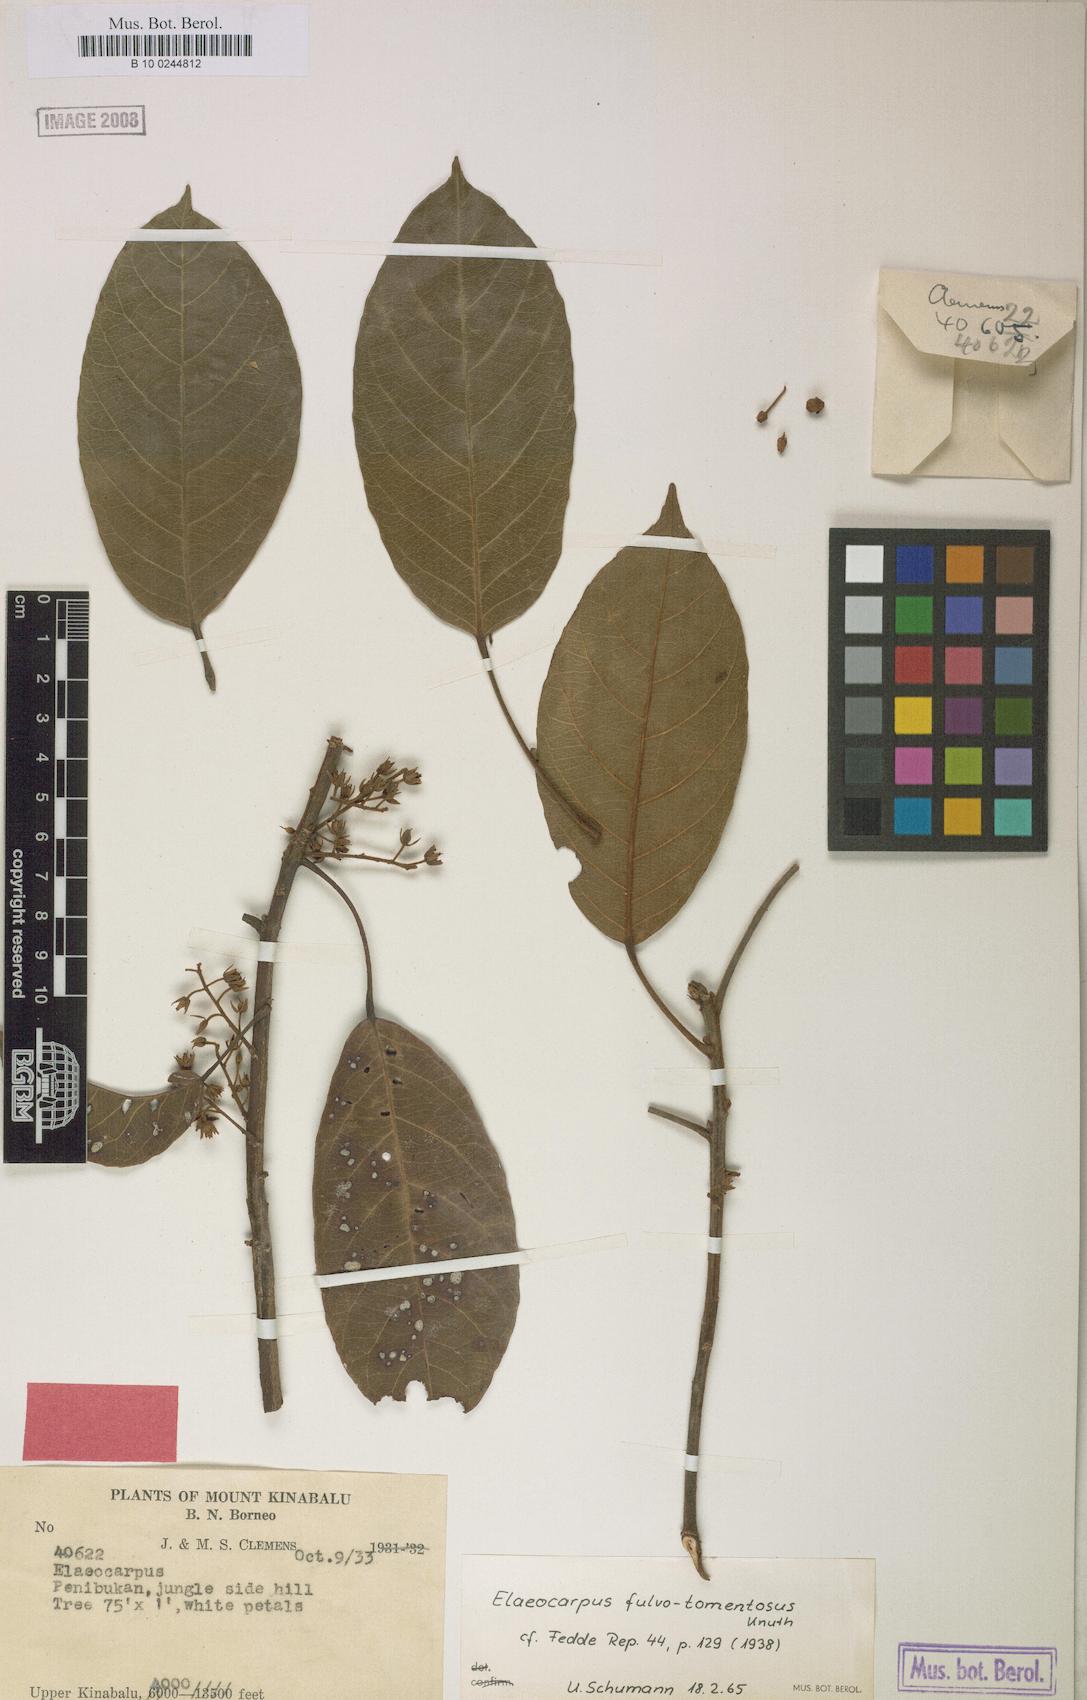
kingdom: Plantae
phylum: Tracheophyta
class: Magnoliopsida
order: Oxalidales
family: Elaeocarpaceae
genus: Elaeocarpus
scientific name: Elaeocarpus ferrugineus
